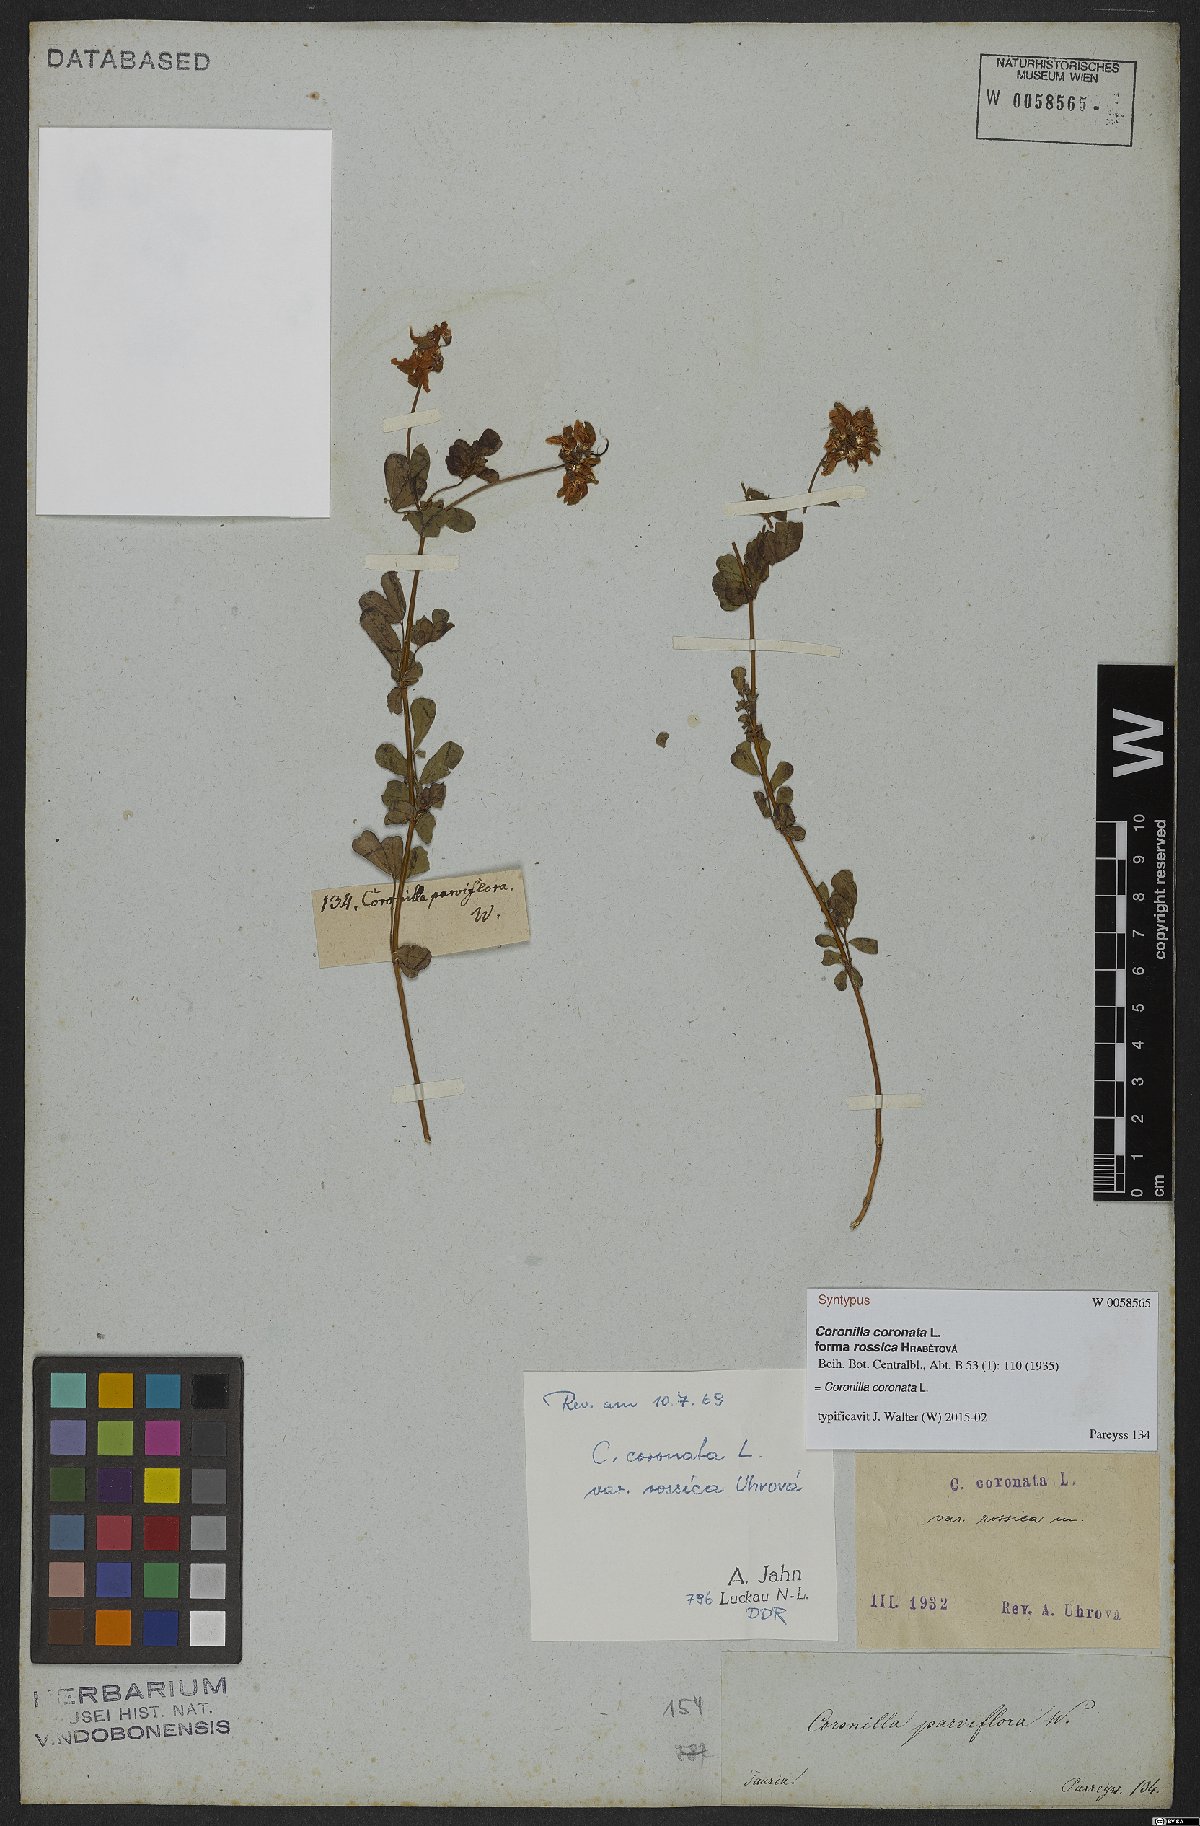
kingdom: Plantae
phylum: Tracheophyta
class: Magnoliopsida
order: Fabales
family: Fabaceae
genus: Coronilla
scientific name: Coronilla coronata
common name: Scorpion-vetch
